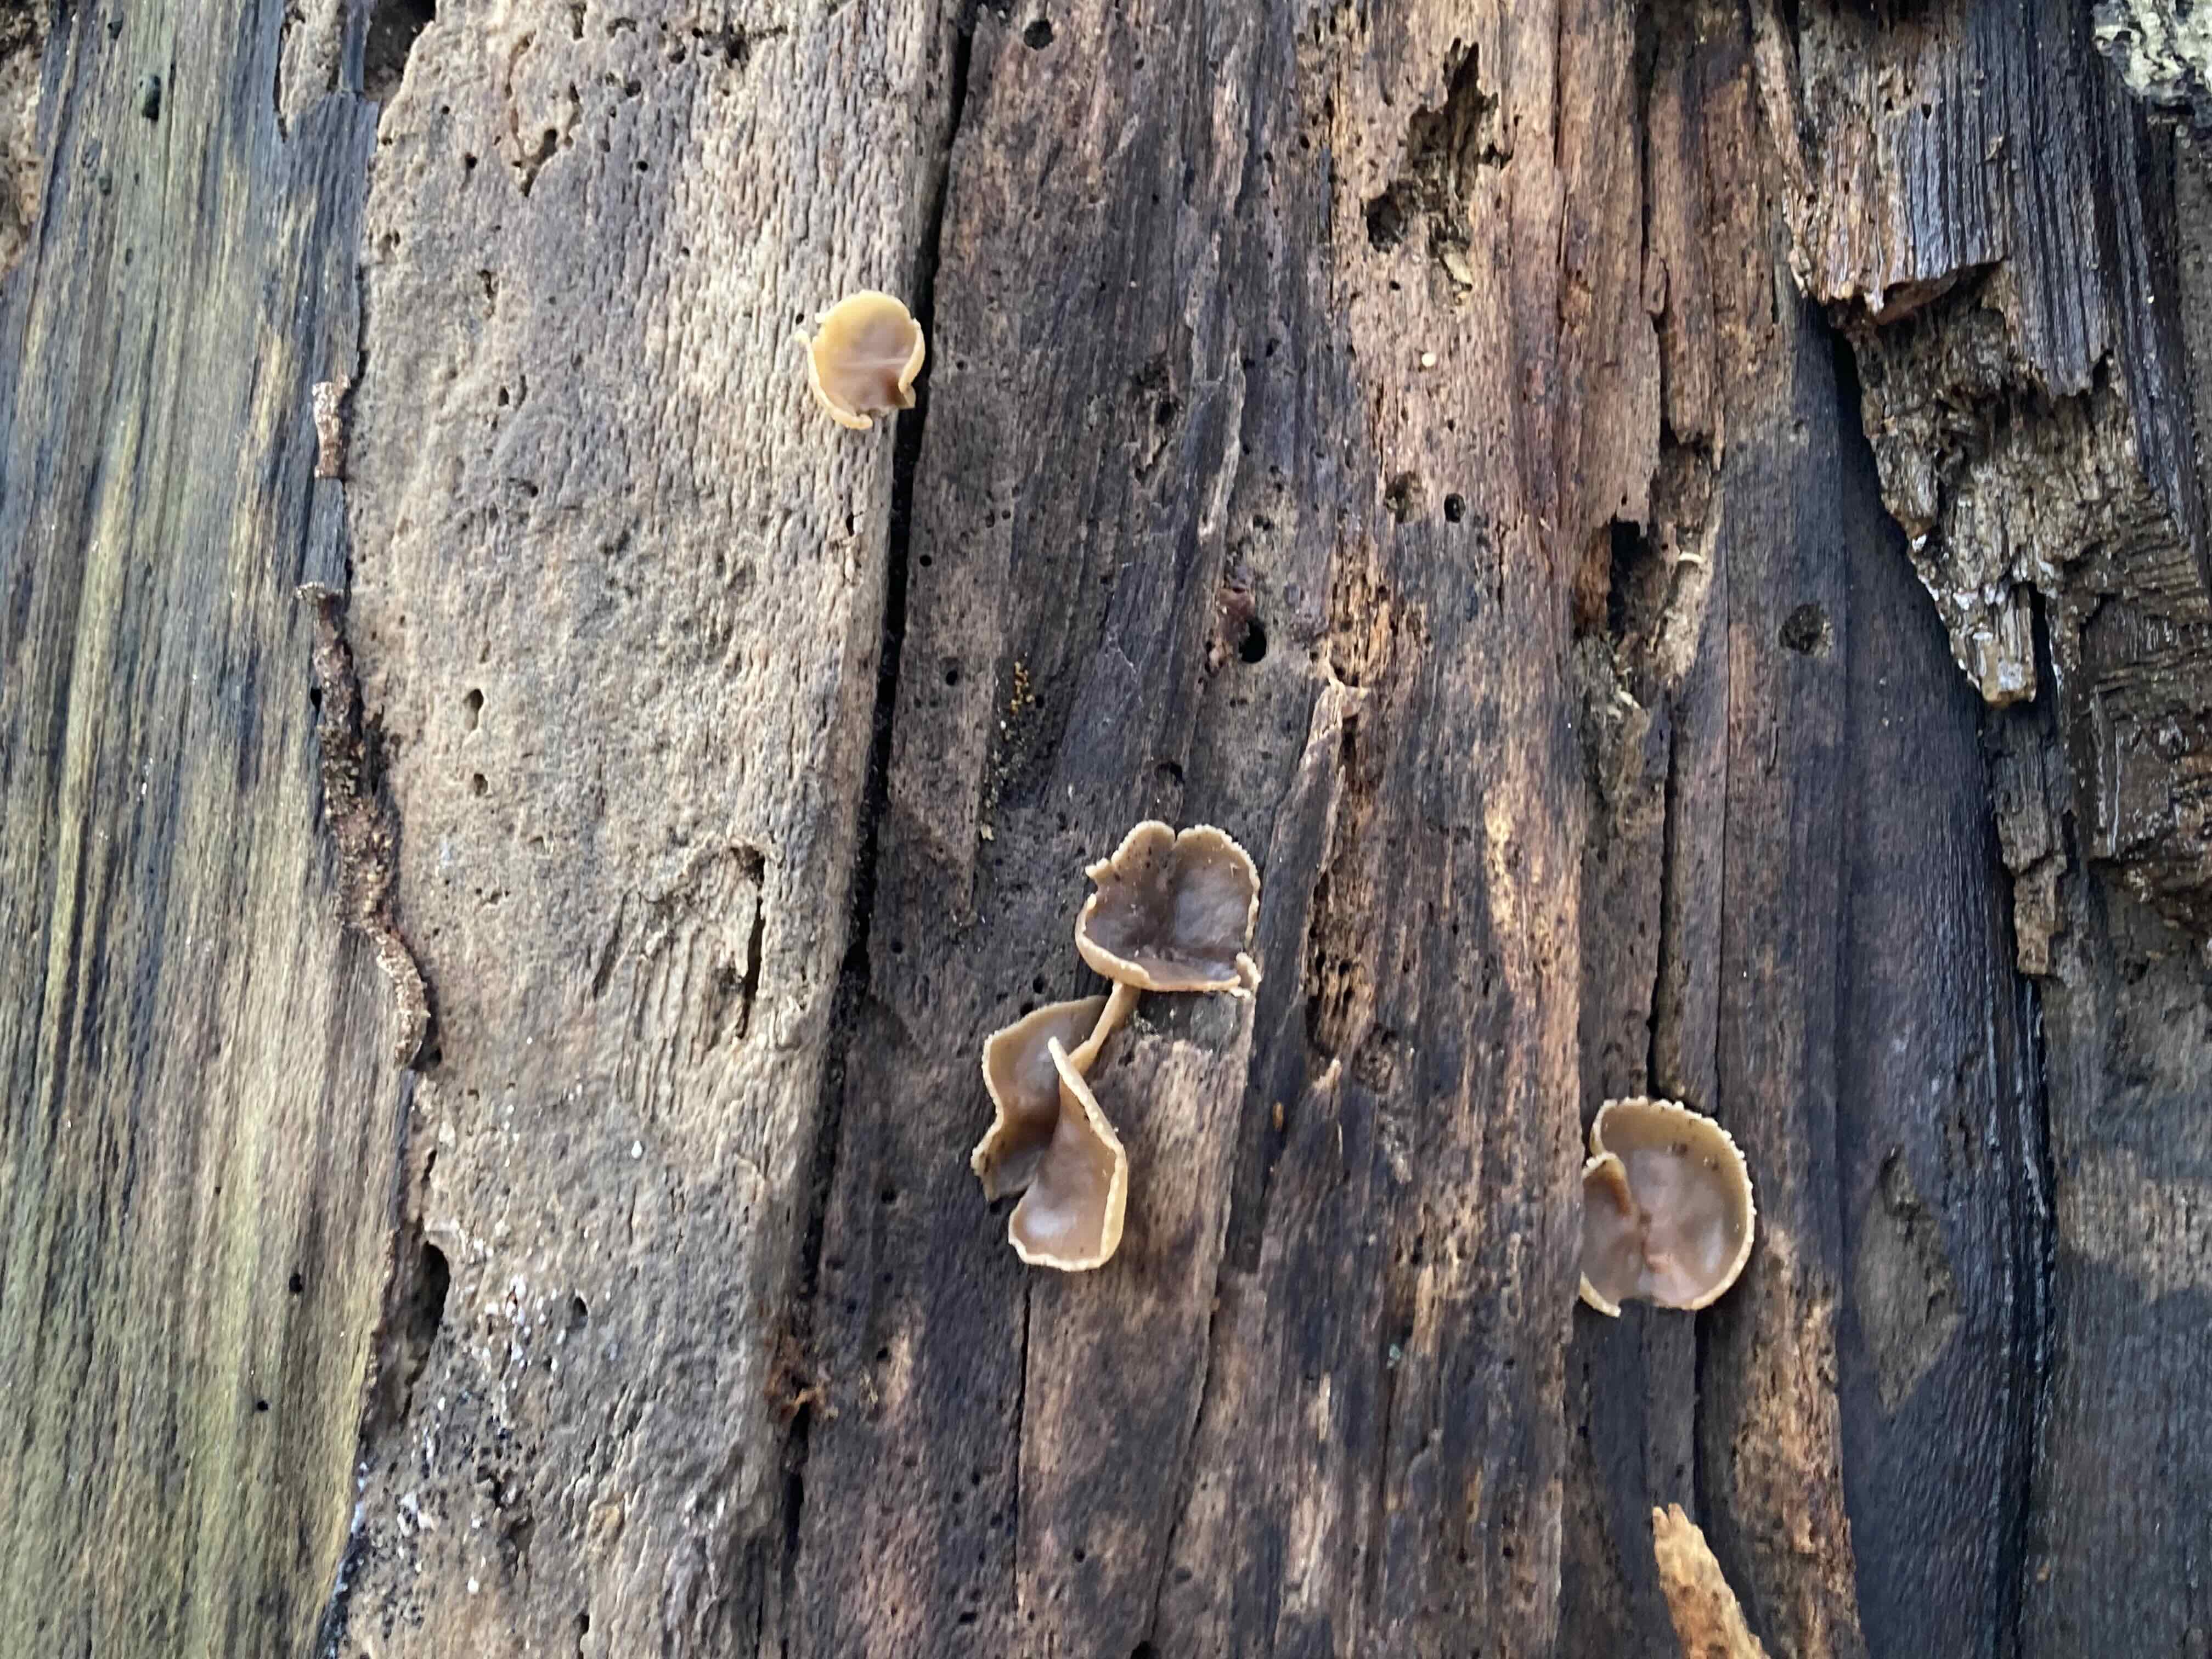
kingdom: Fungi
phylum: Ascomycota
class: Pezizomycetes
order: Pezizales
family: Pezizaceae
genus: Peziza
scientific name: Peziza varia
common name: Ved-bægersvamp
